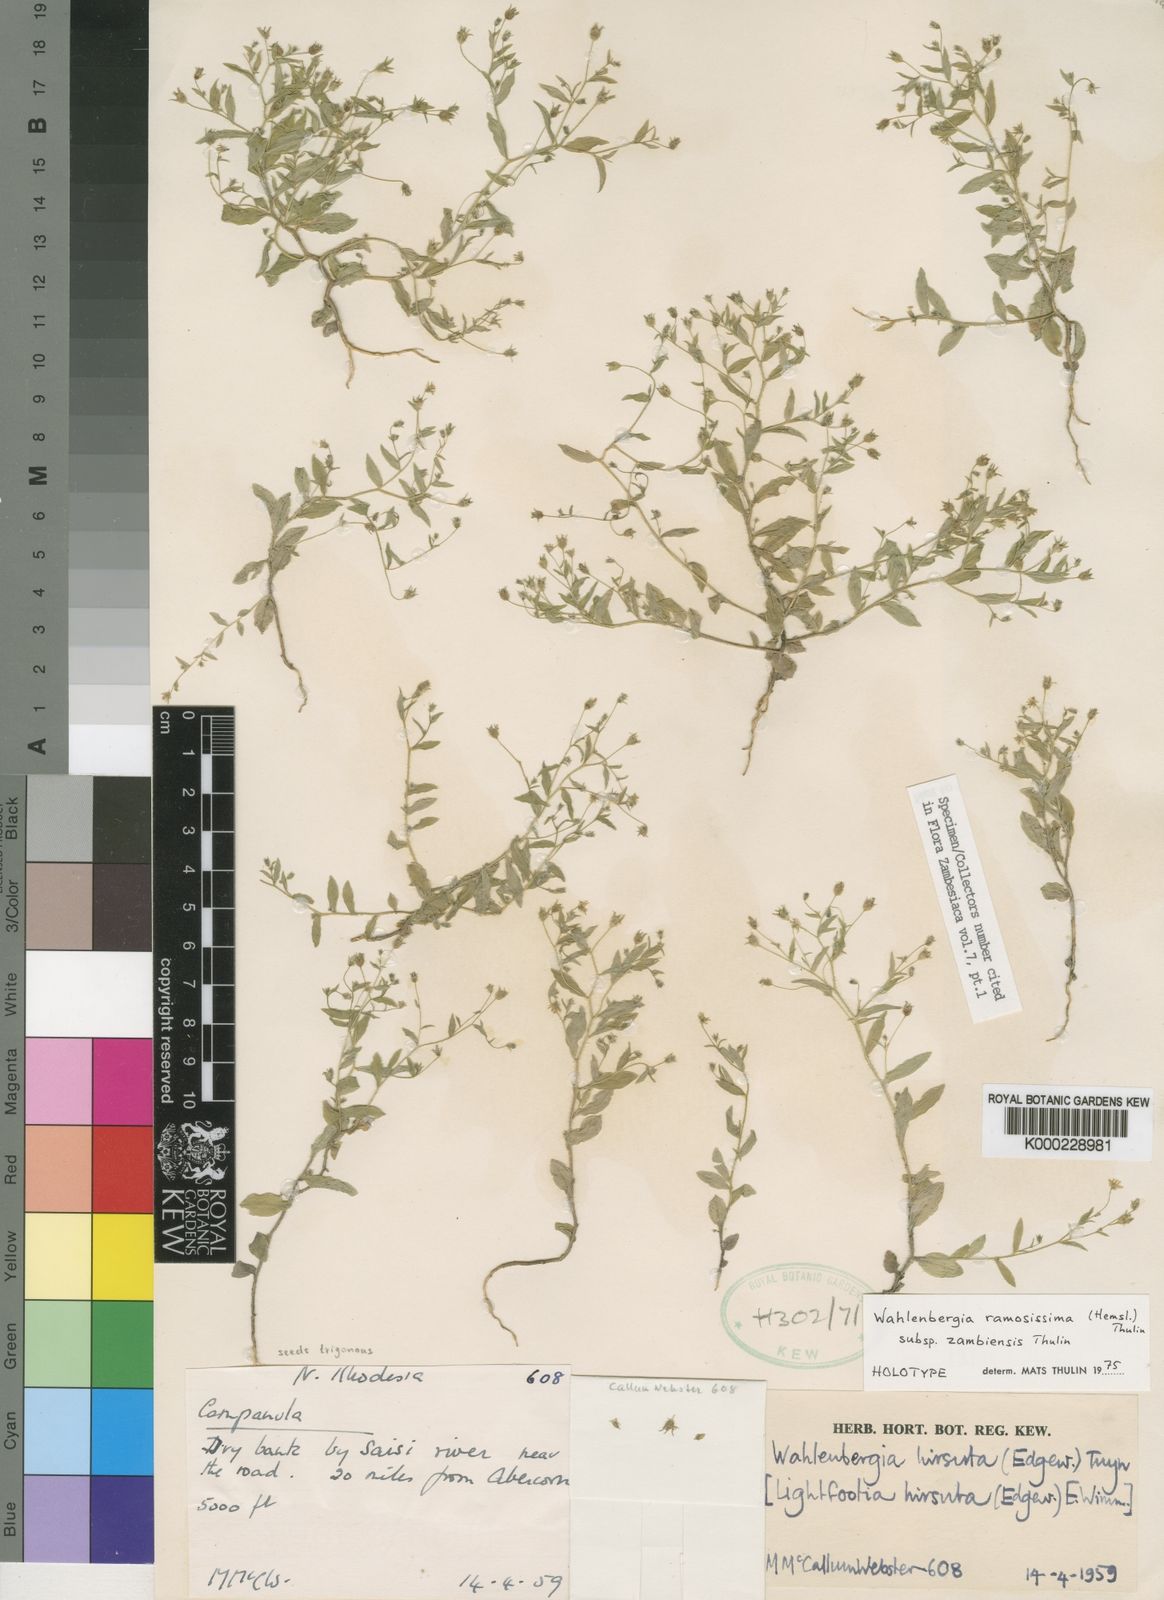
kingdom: Plantae
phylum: Tracheophyta
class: Magnoliopsida
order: Asterales
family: Campanulaceae
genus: Wahlenbergia
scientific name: Wahlenbergia ramosissima
